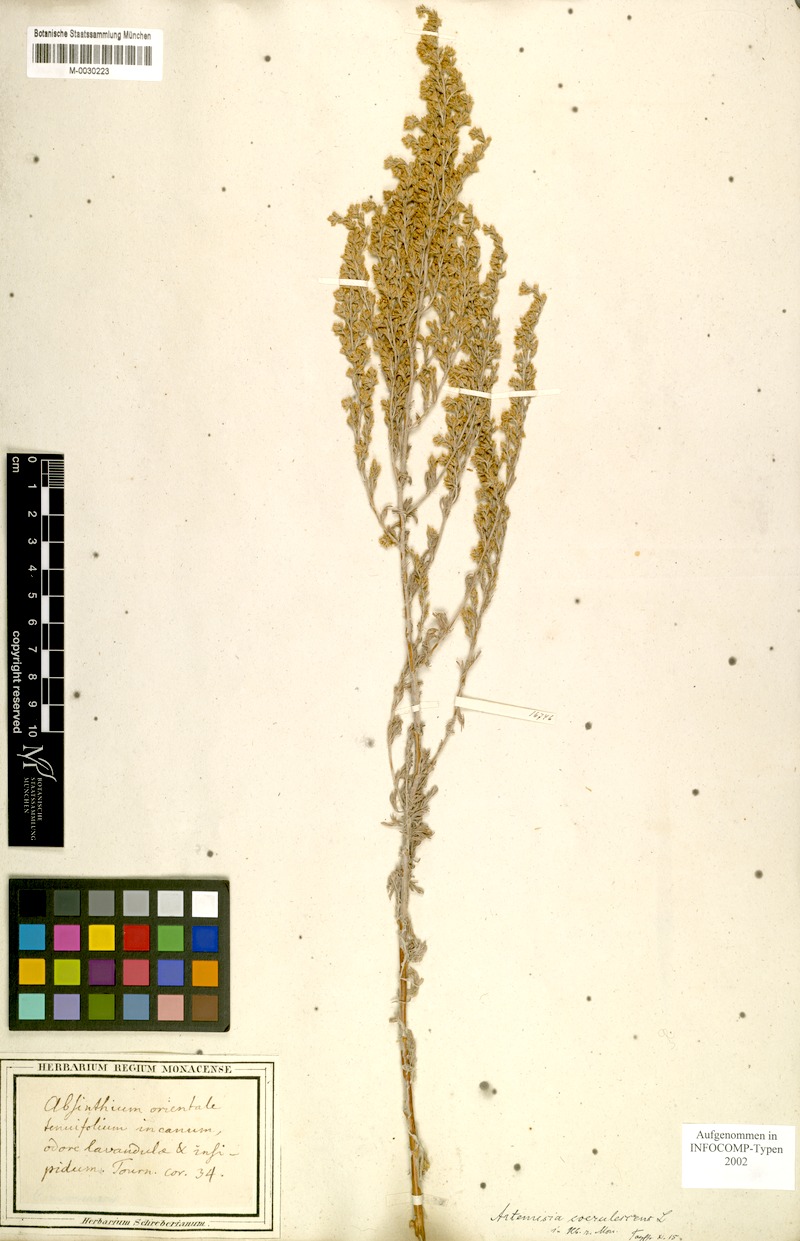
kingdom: Plantae
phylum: Tracheophyta
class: Magnoliopsida
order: Asterales
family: Asteraceae
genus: Artemisia
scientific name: Artemisia caerulescens
